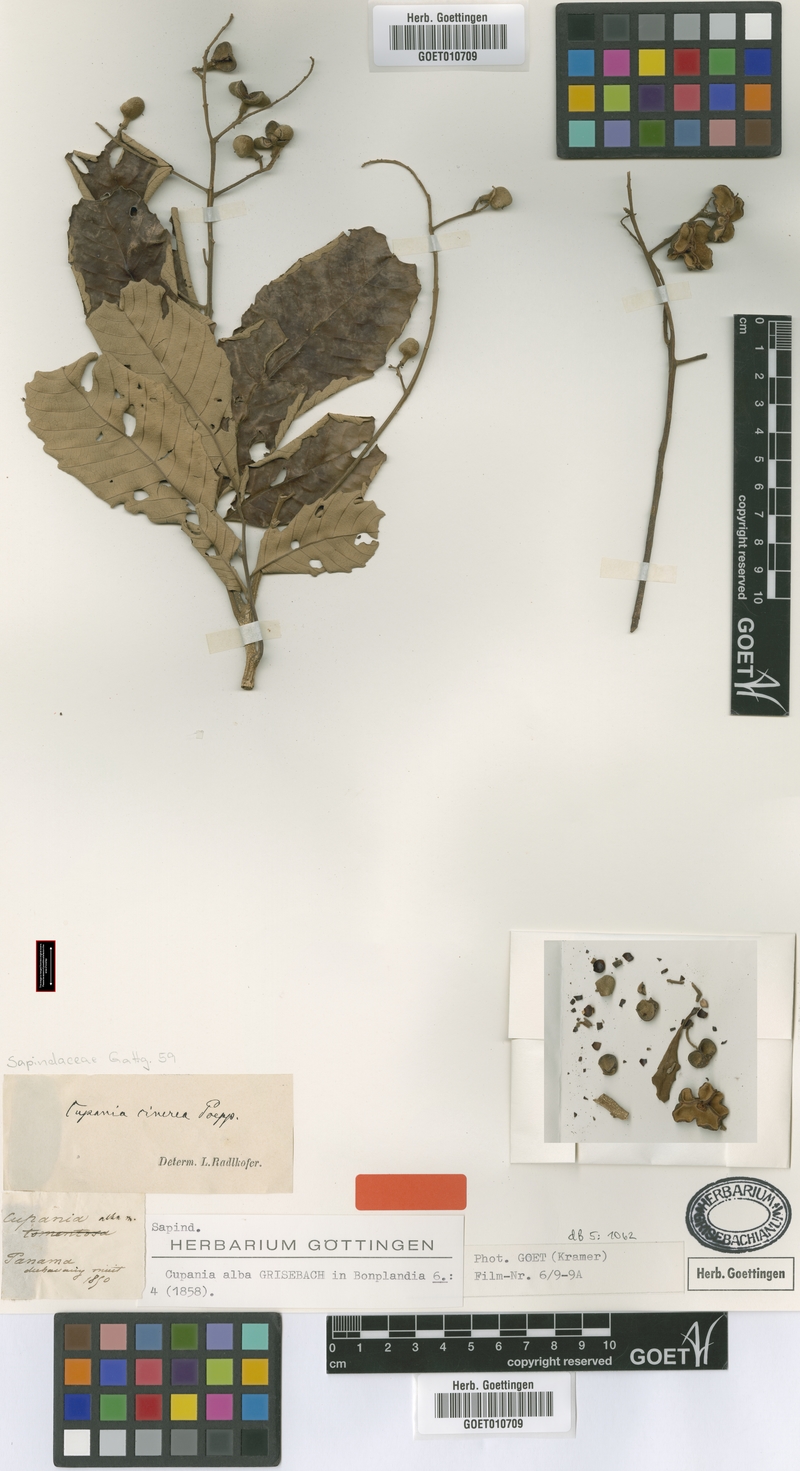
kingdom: Plantae
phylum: Tracheophyta
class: Magnoliopsida
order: Sapindales
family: Sapindaceae
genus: Cupania
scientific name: Cupania cinerea
